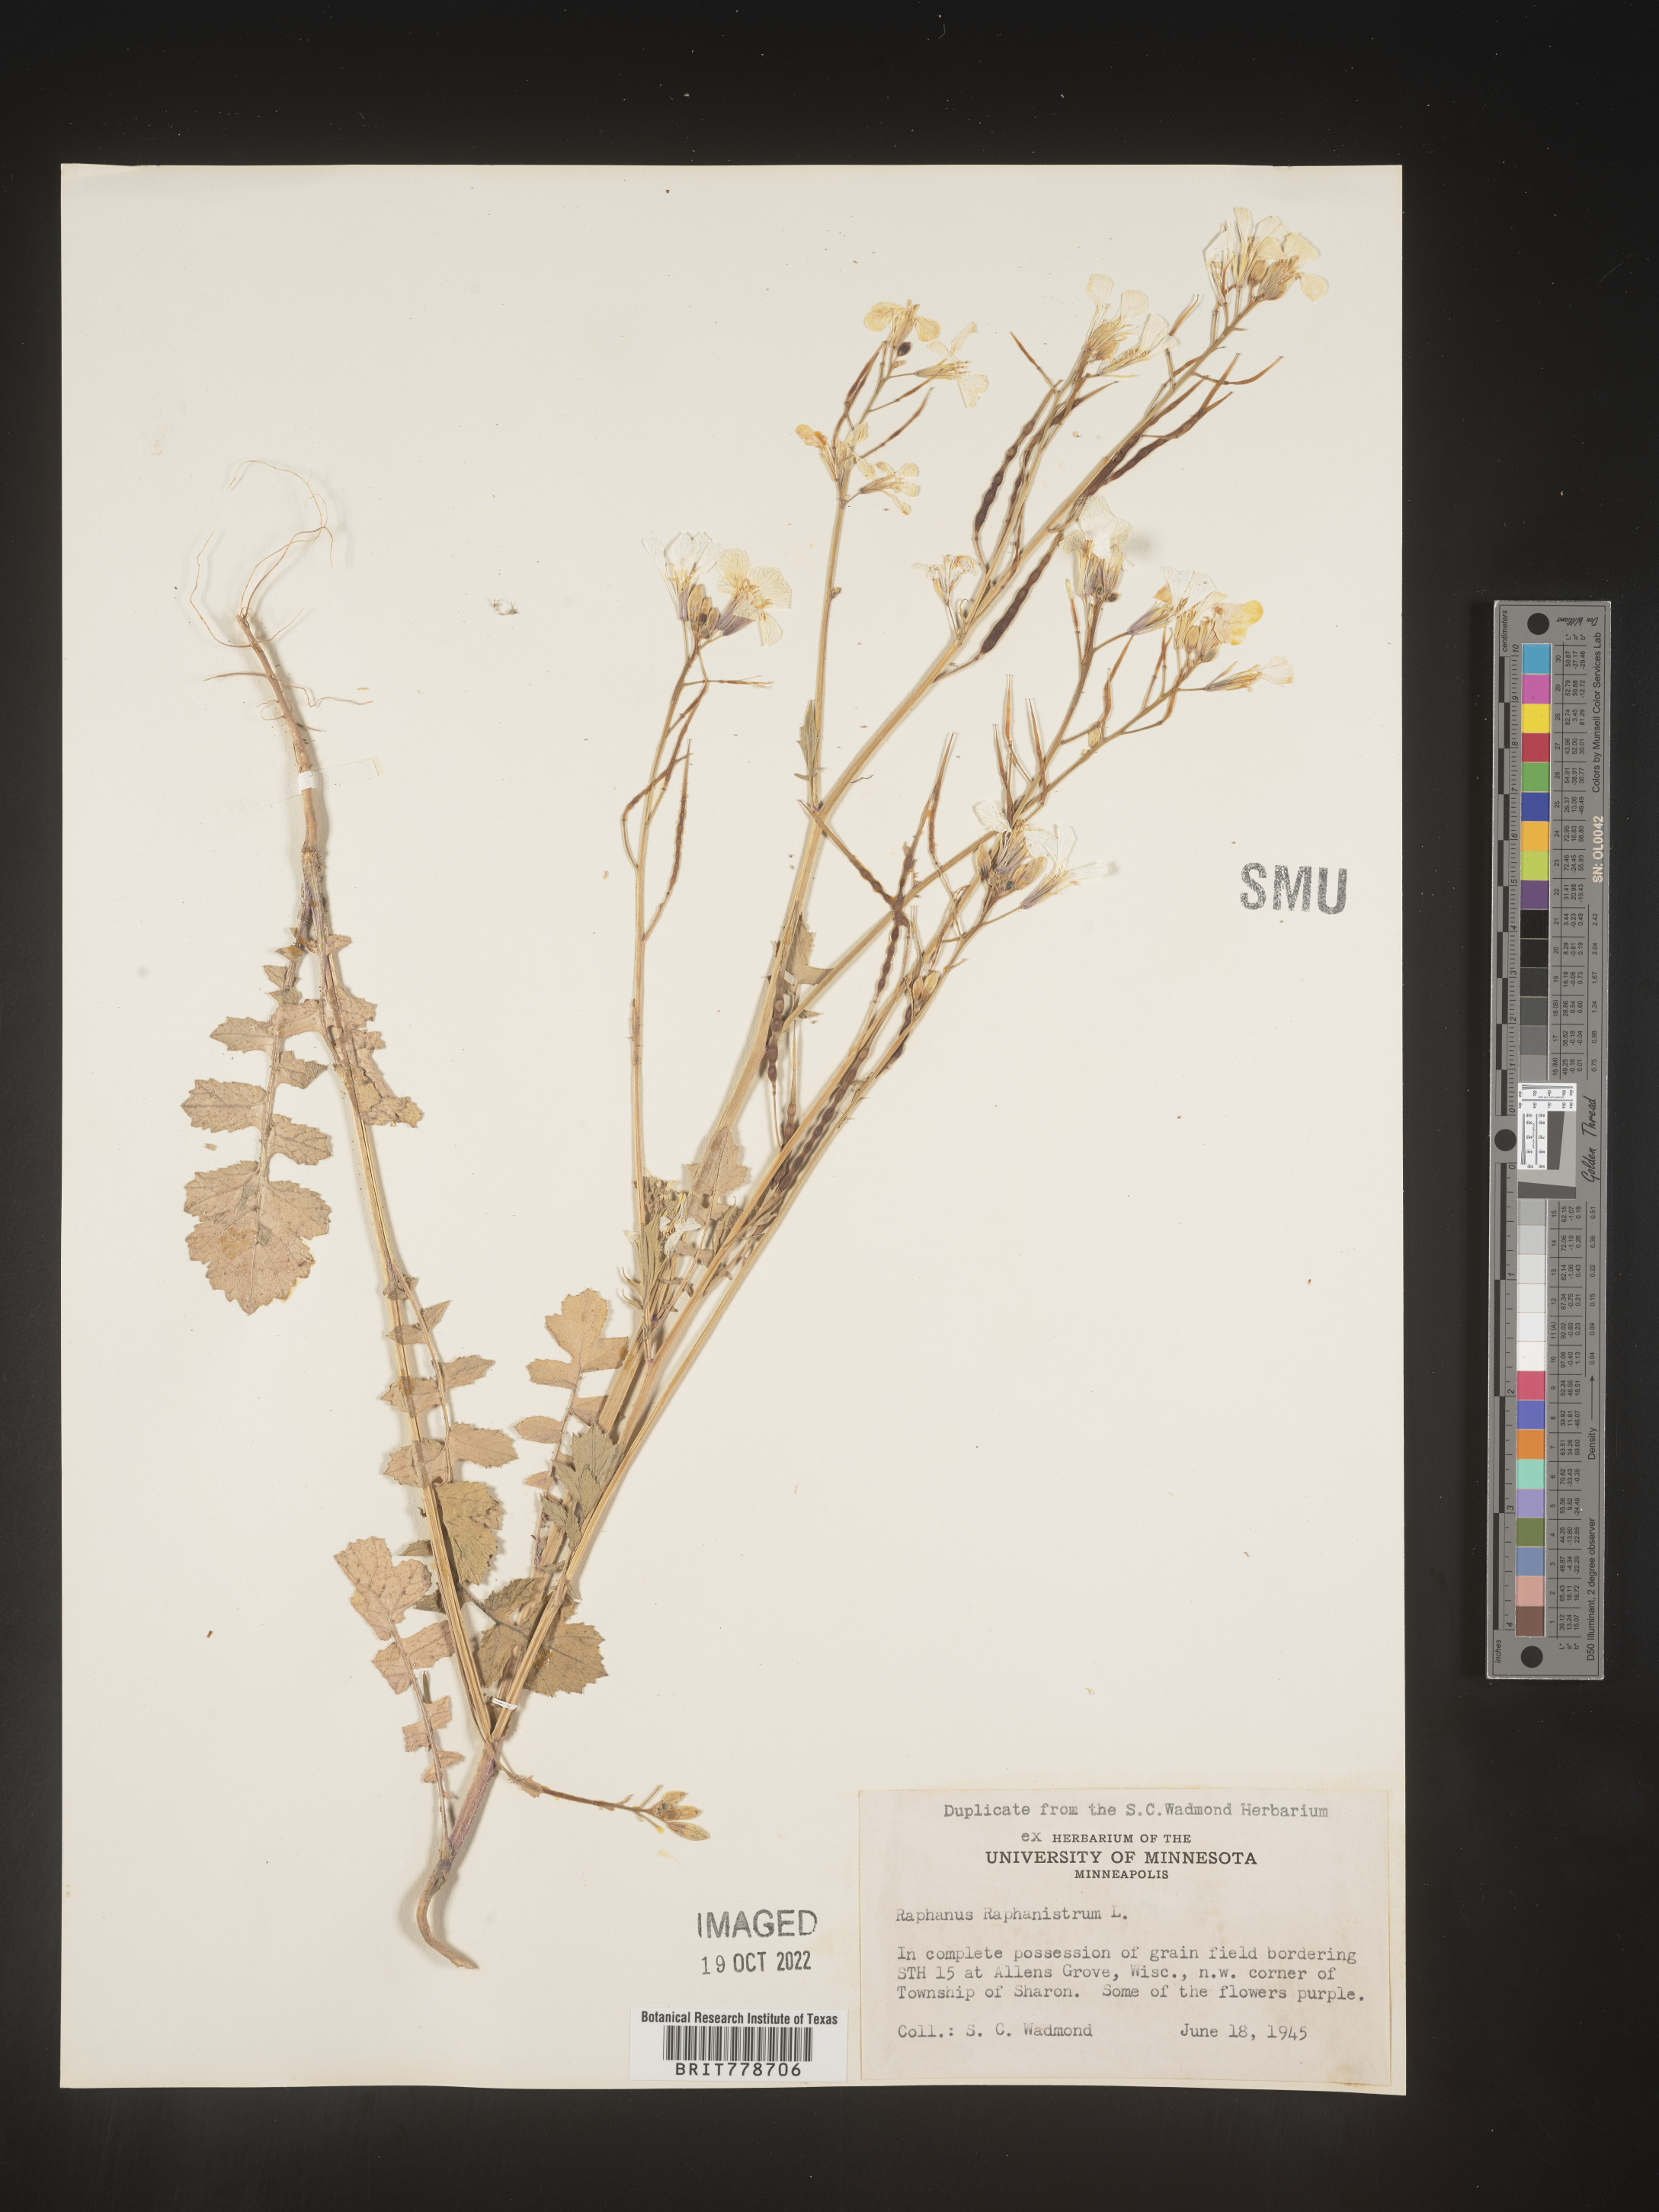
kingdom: Plantae
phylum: Tracheophyta
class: Magnoliopsida
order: Brassicales
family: Brassicaceae
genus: Raphanus
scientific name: Raphanus raphanistrum
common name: Wild radish
